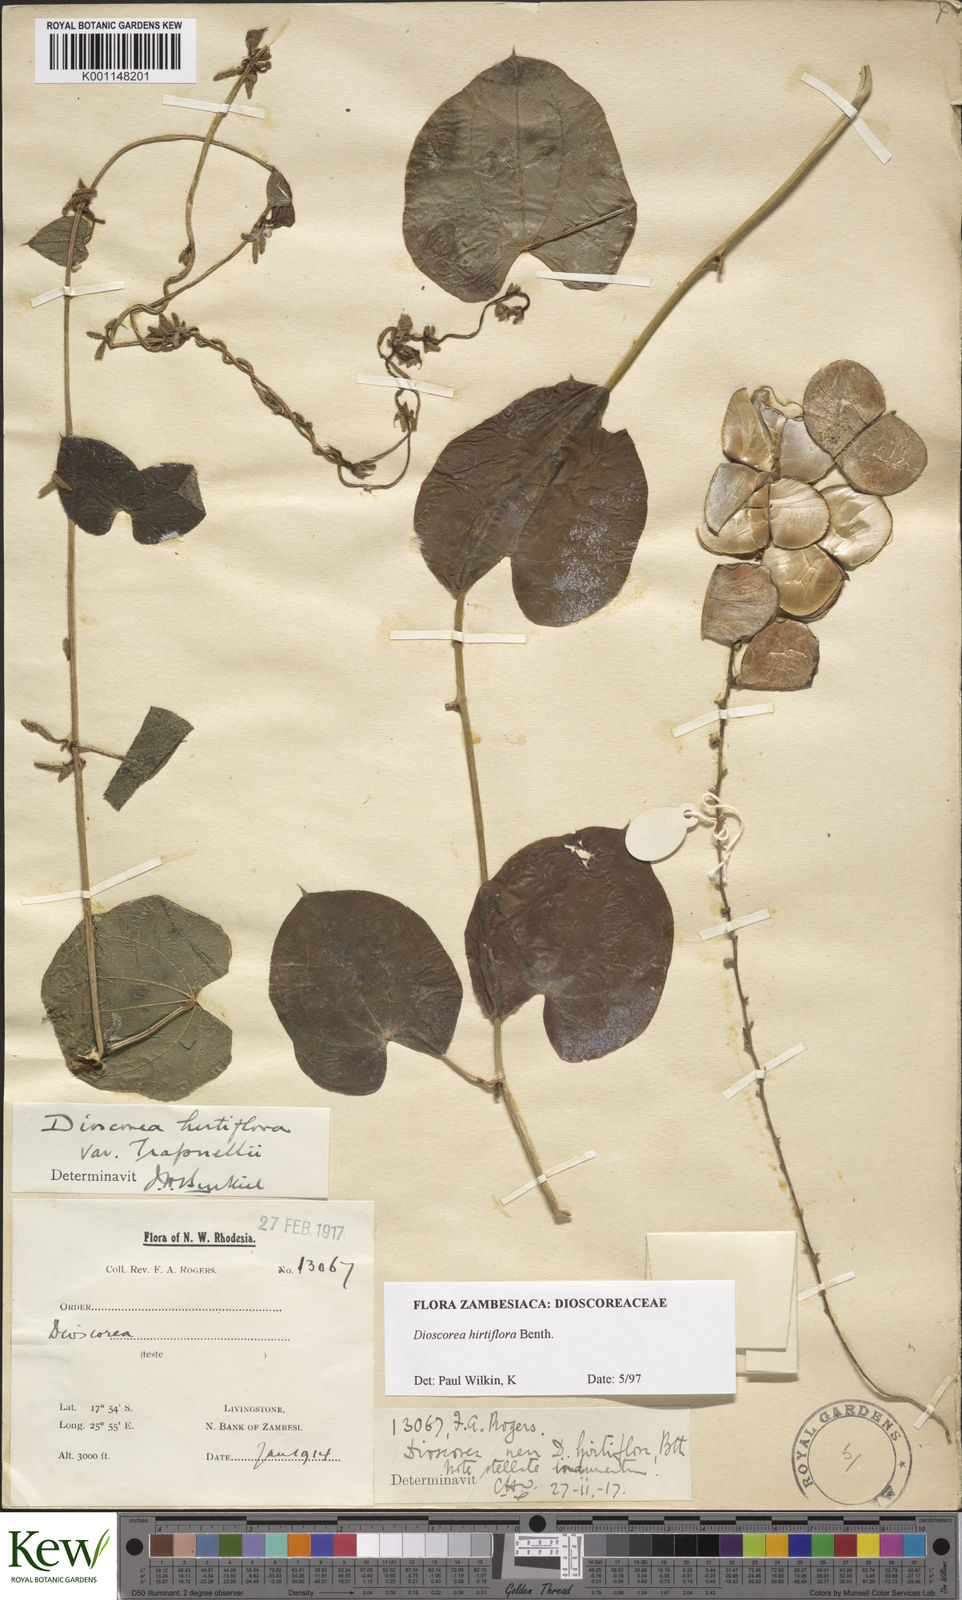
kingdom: Plantae
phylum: Tracheophyta
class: Liliopsida
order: Dioscoreales
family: Dioscoreaceae
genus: Dioscorea
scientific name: Dioscorea hirtiflora
